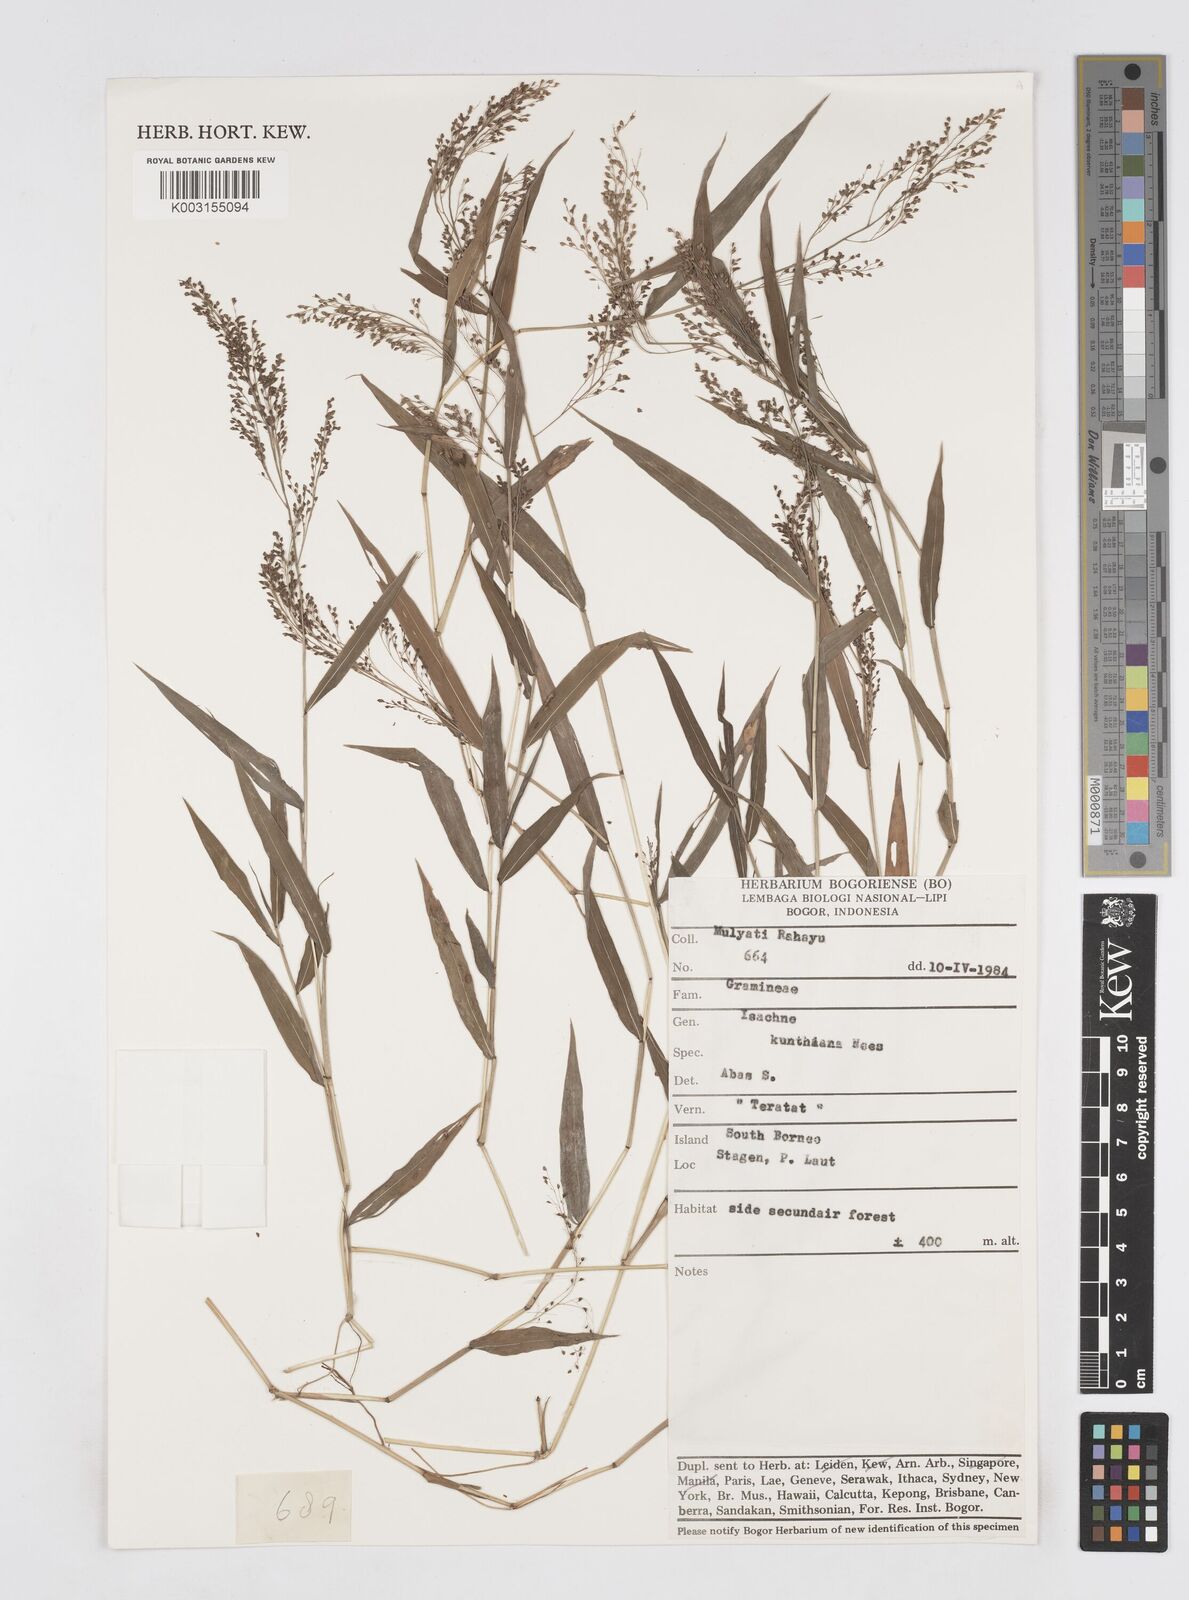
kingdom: Plantae
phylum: Tracheophyta
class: Liliopsida
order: Poales
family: Poaceae
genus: Isachne
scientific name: Isachne
